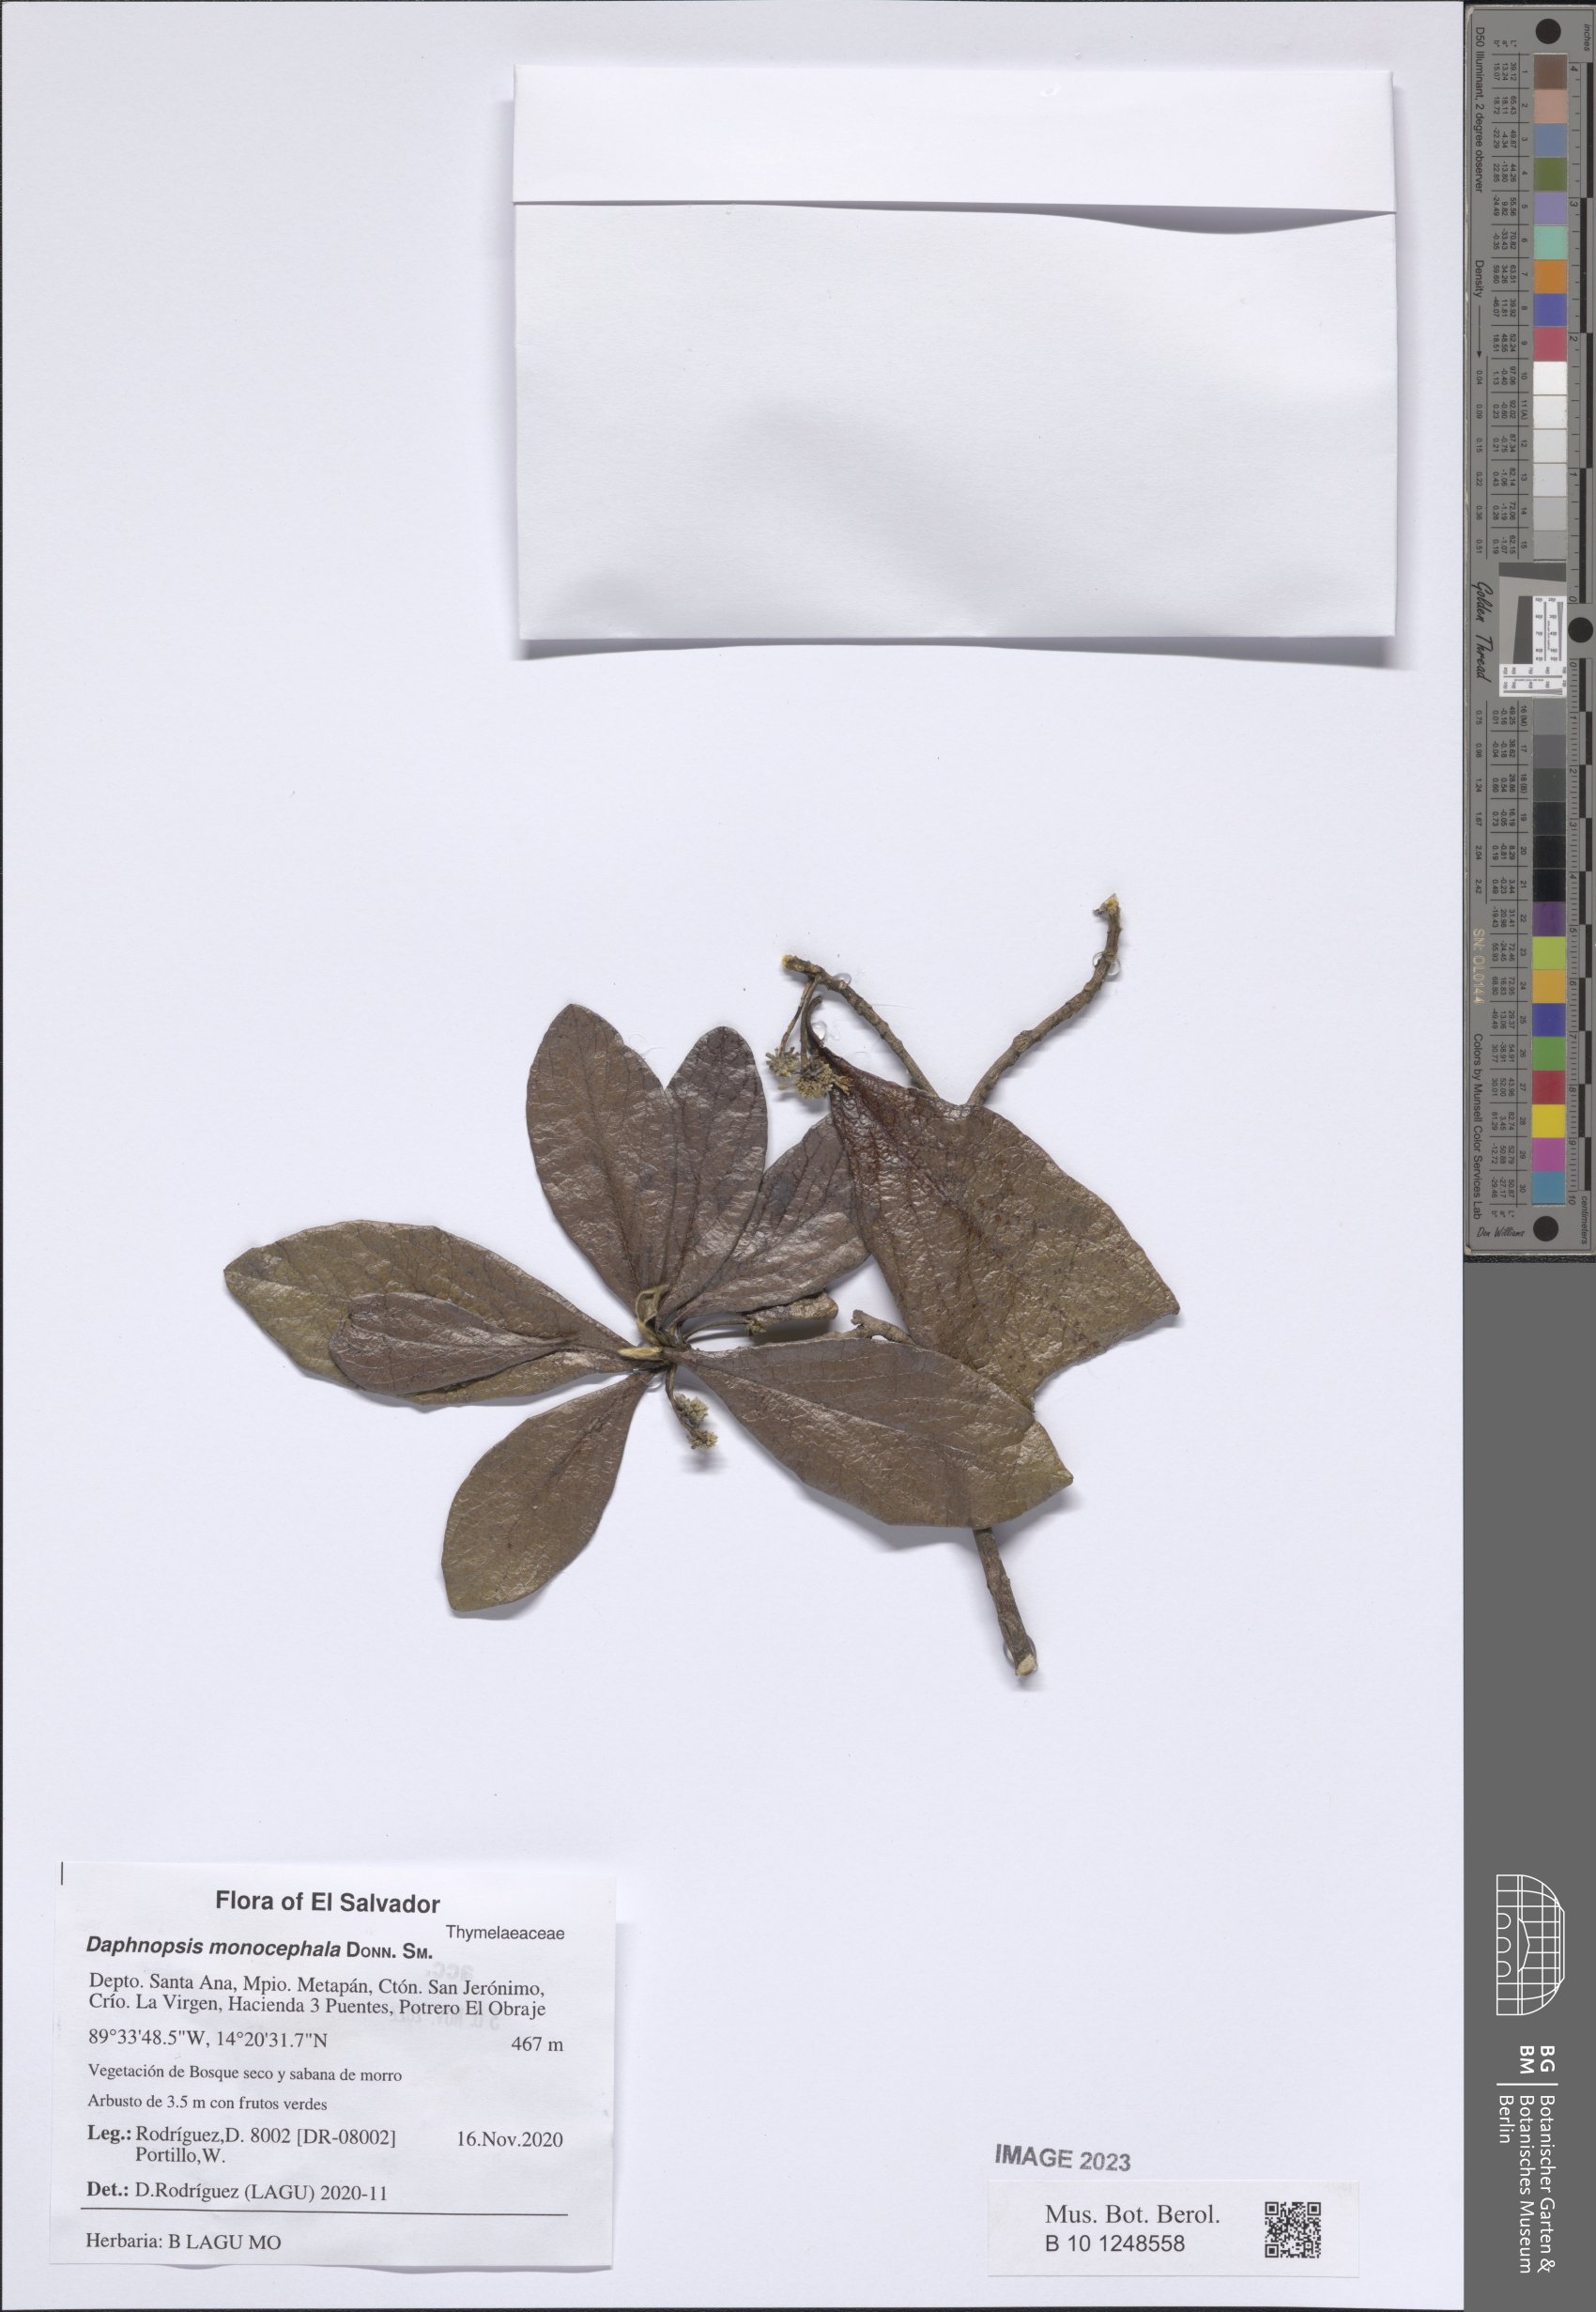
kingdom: Plantae
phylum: Tracheophyta
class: Magnoliopsida
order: Malvales
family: Thymelaeaceae
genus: Daphnopsis
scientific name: Daphnopsis monocephala
